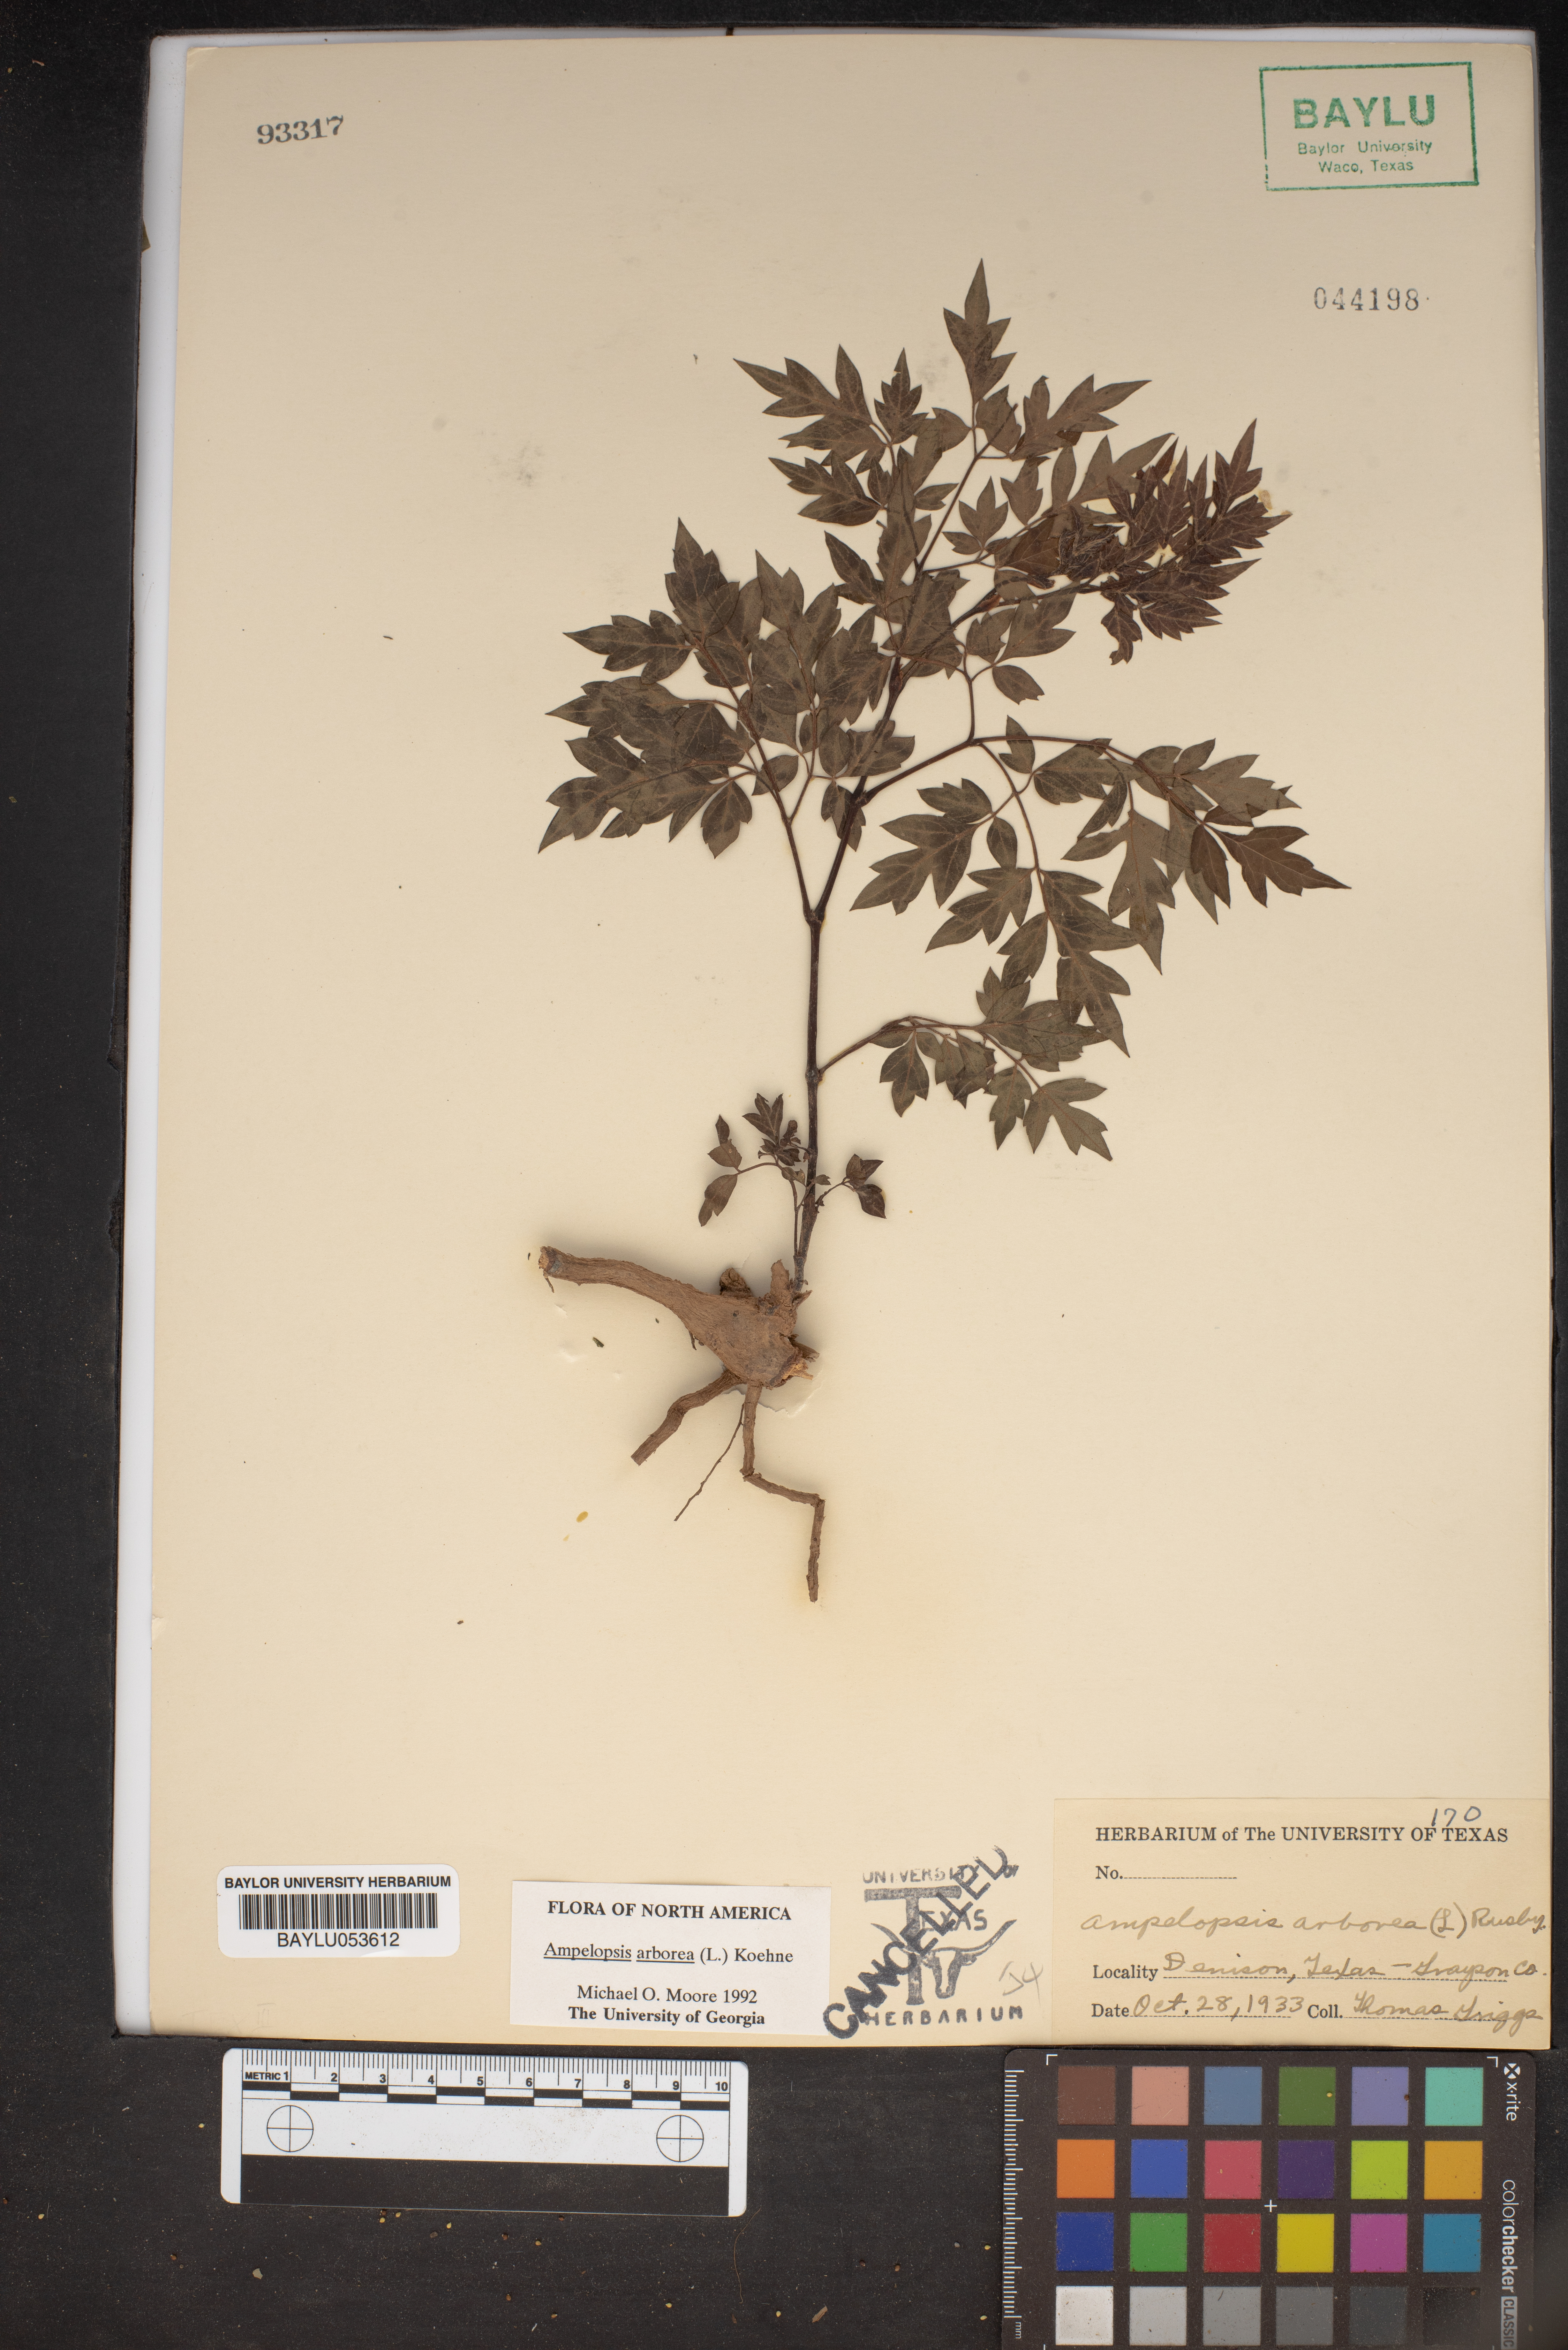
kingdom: Plantae
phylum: Tracheophyta
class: Magnoliopsida
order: Vitales
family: Vitaceae
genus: Nekemias
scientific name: Nekemias arborea
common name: Peppervine
